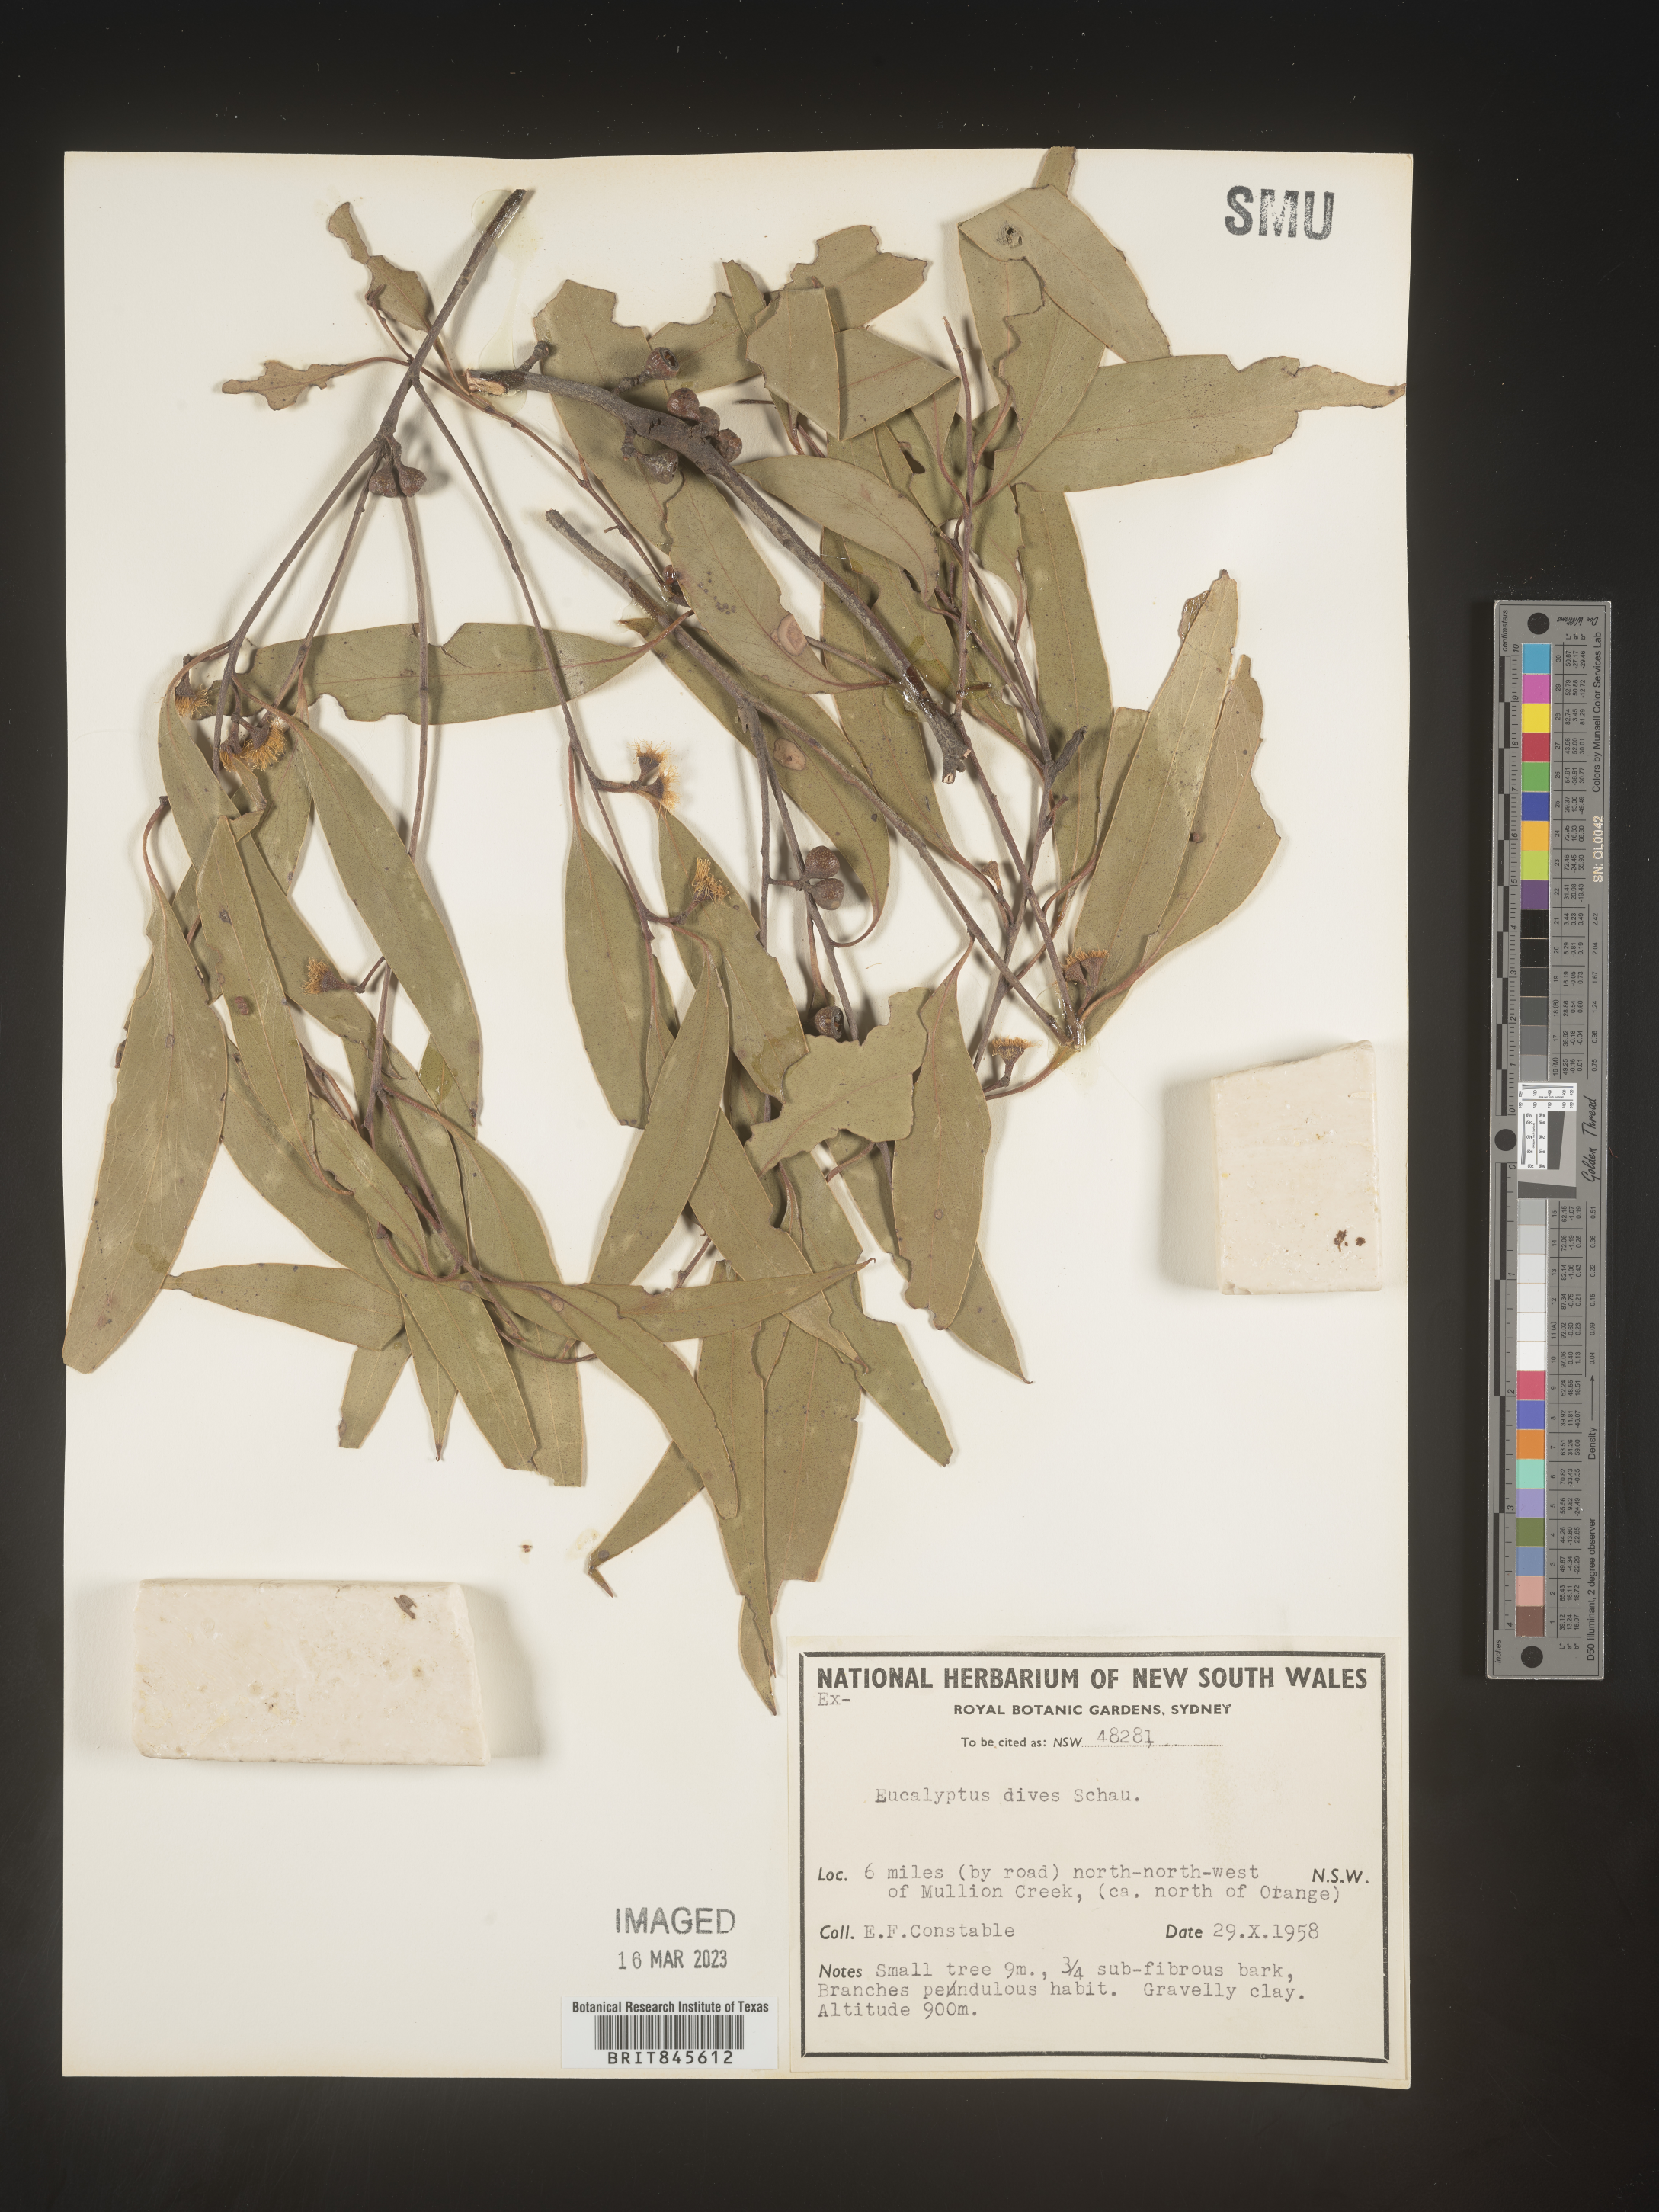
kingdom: Plantae
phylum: Tracheophyta
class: Magnoliopsida
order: Myrtales
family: Myrtaceae
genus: Eucalyptus
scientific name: Eucalyptus
